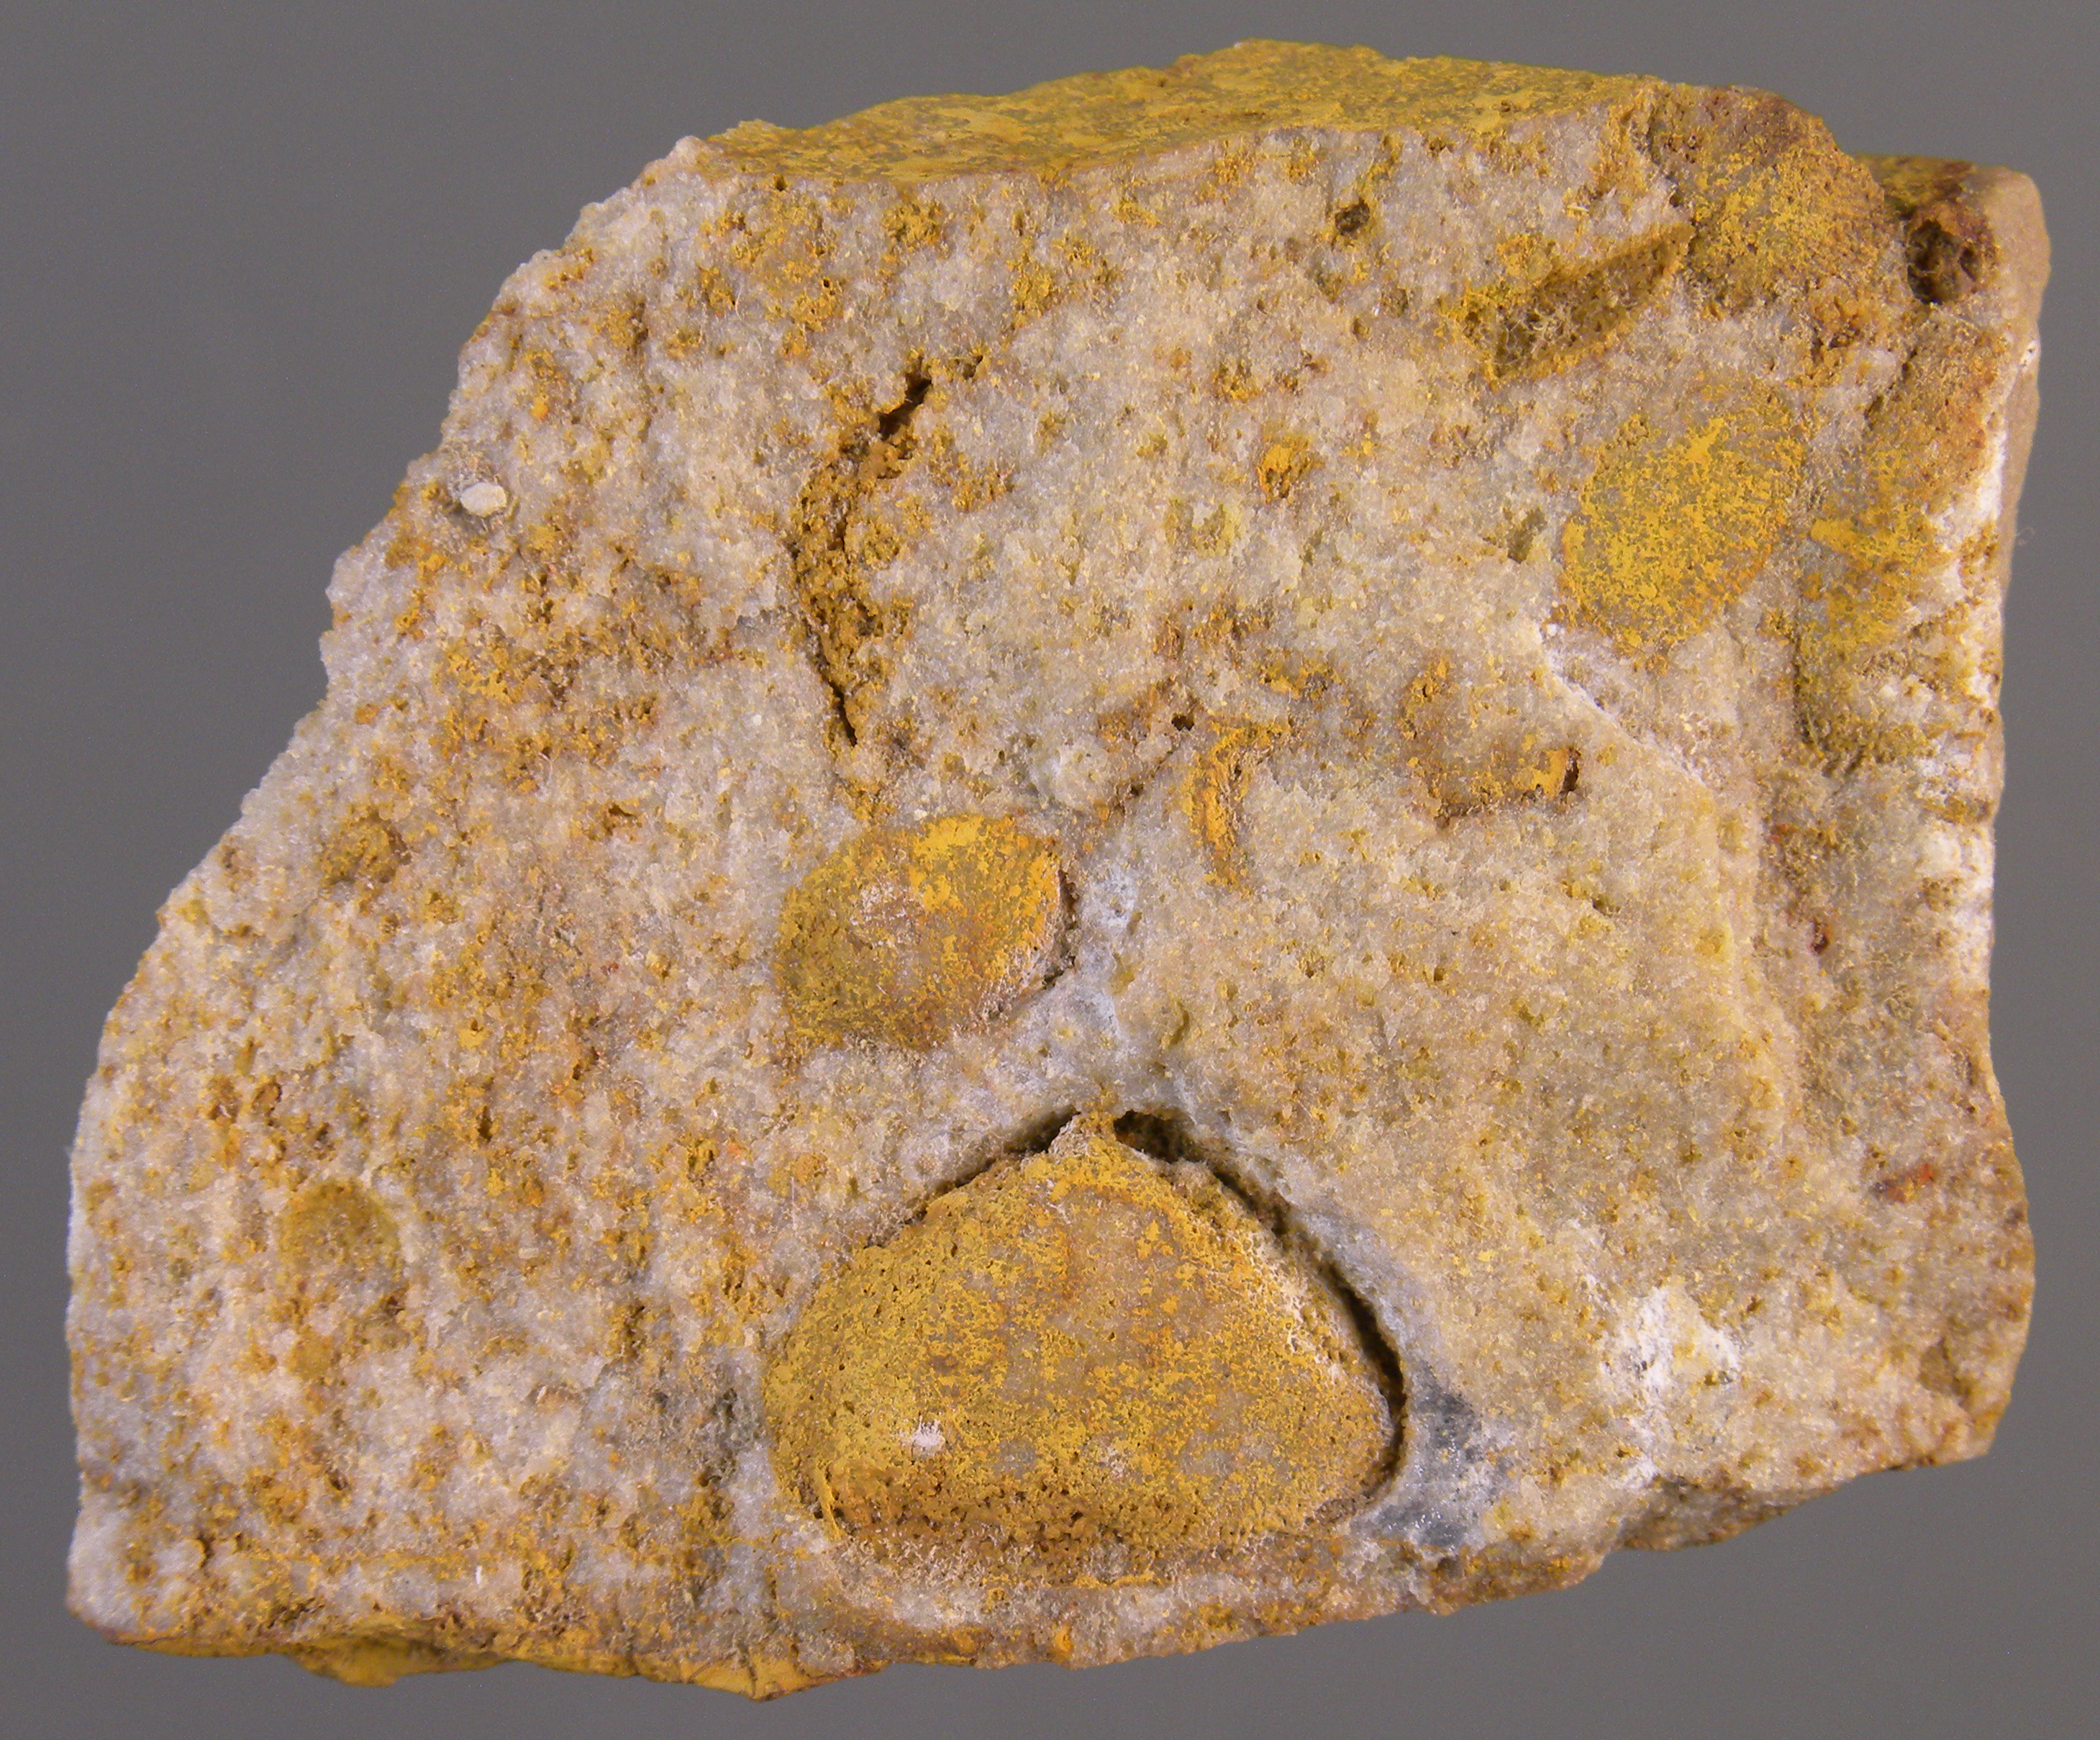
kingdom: Animalia
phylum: Mollusca
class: Bivalvia
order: Nuculanida
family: Nuculanidae
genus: Phestia
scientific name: Phestia
